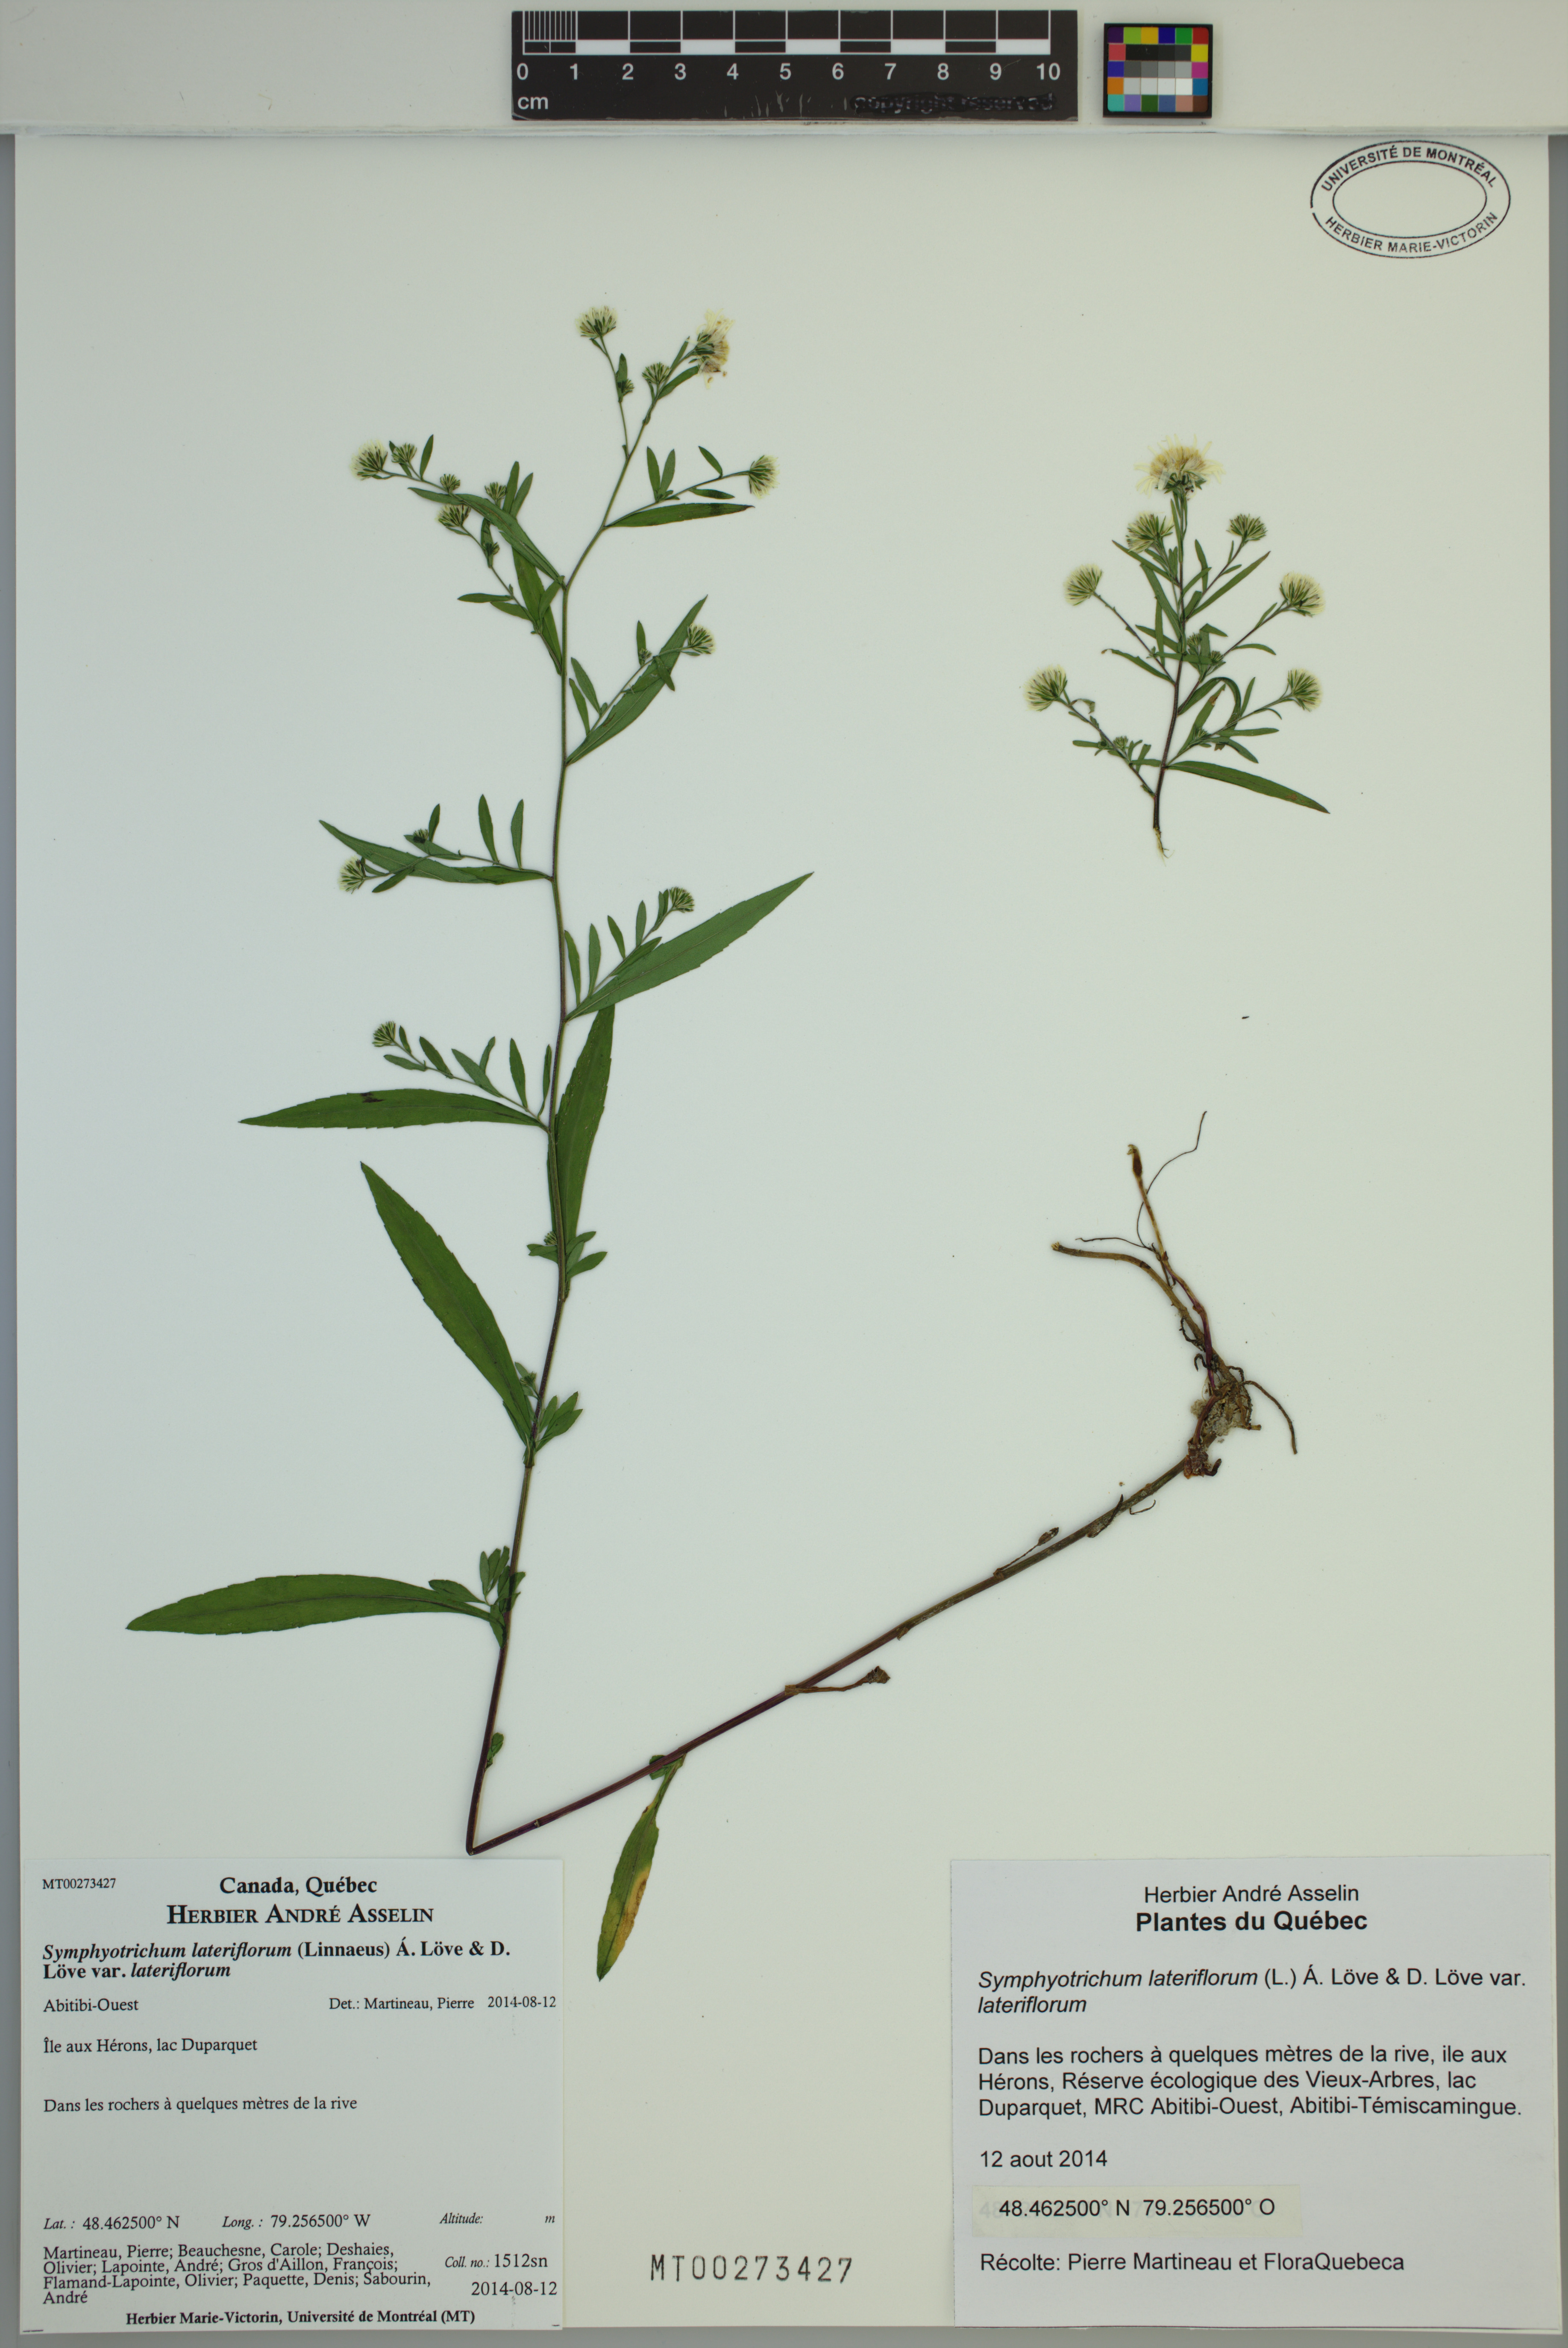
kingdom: Plantae
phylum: Tracheophyta
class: Magnoliopsida
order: Asterales
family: Asteraceae
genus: Symphyotrichum
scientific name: Symphyotrichum ontarionis
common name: Bottomland aster
